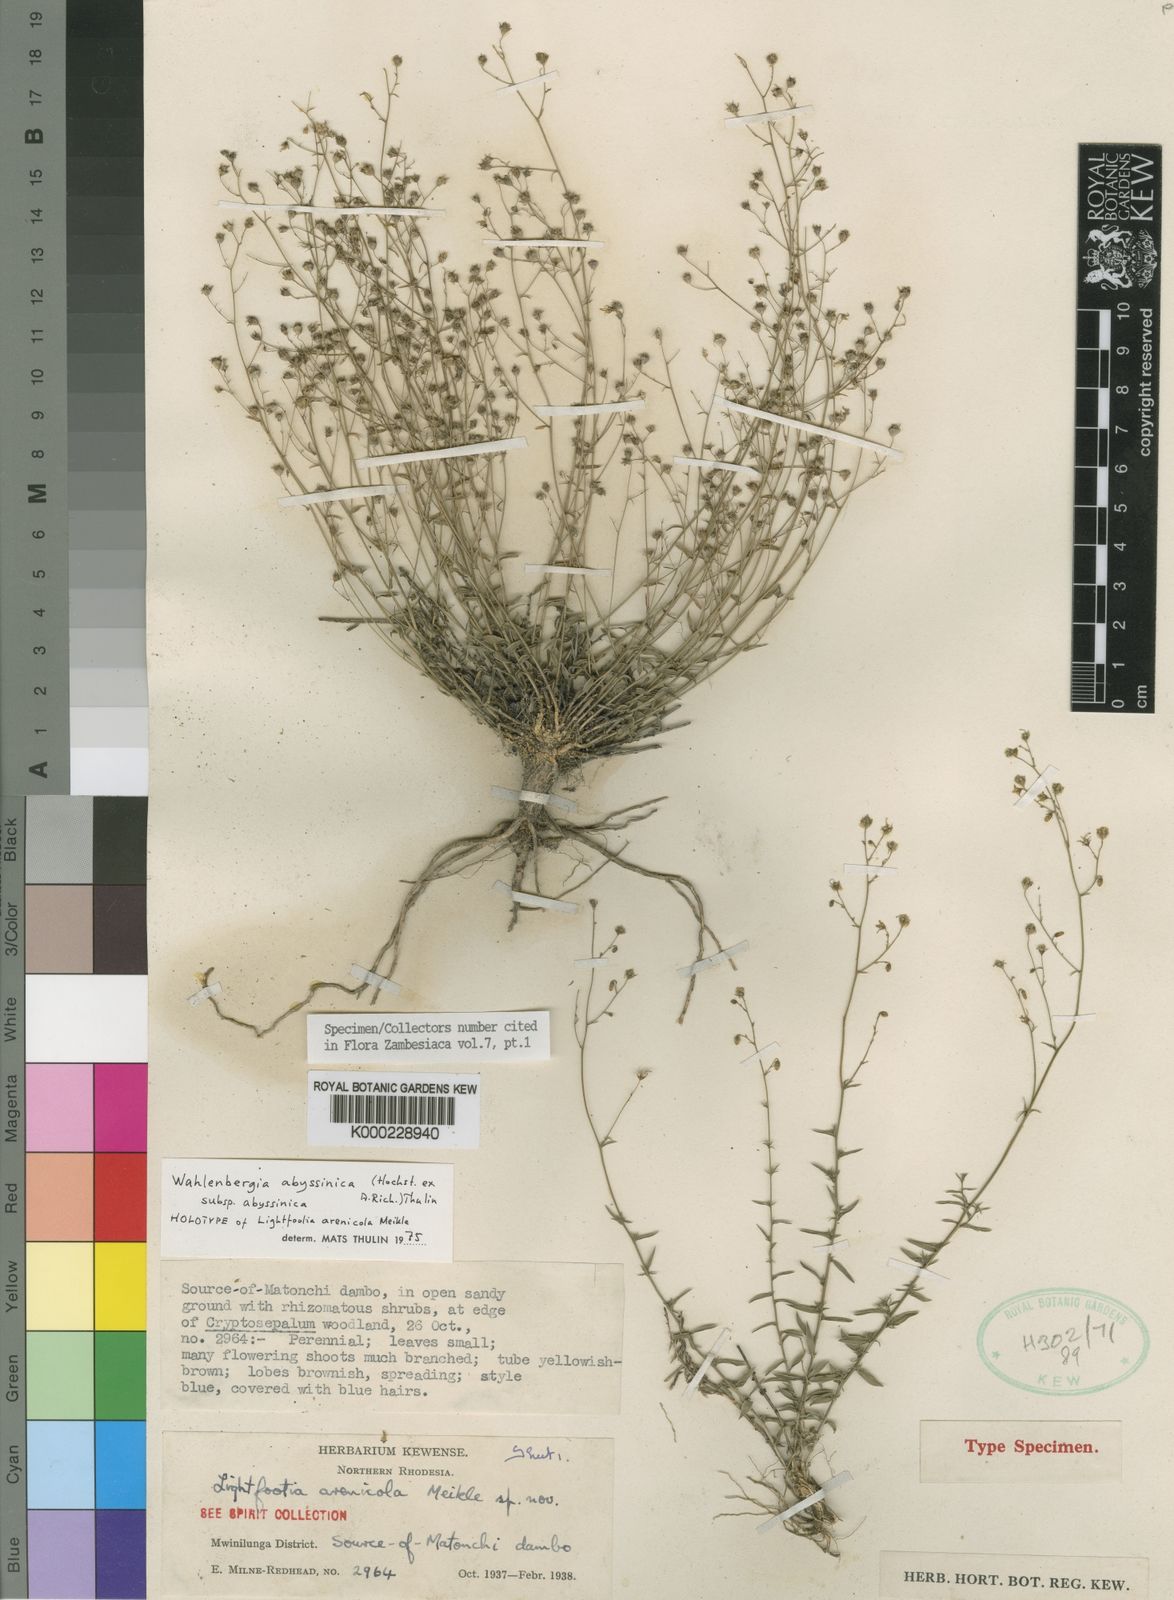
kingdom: Plantae
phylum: Tracheophyta
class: Magnoliopsida
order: Asterales
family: Campanulaceae
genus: Wahlenbergia
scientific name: Wahlenbergia abyssinica
